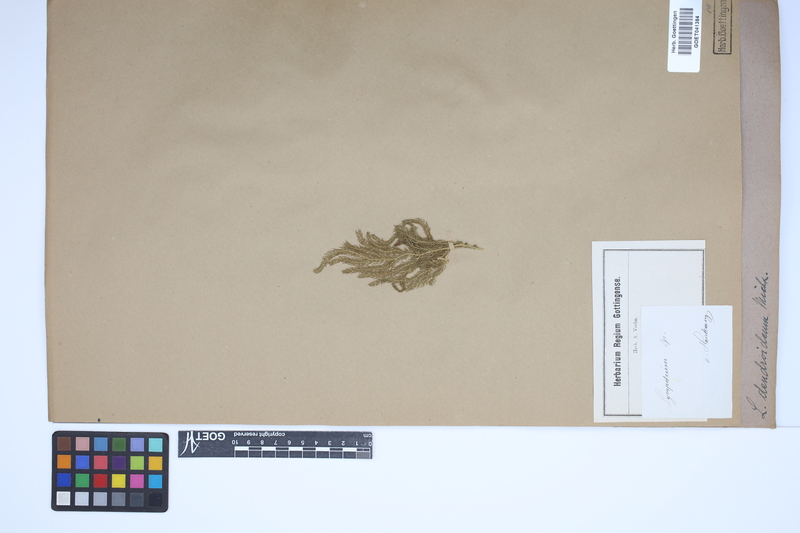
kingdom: Plantae
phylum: Tracheophyta
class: Lycopodiopsida
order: Lycopodiales
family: Lycopodiaceae
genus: Dendrolycopodium
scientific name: Dendrolycopodium dendroideum
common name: Northern tree-clubmoss
